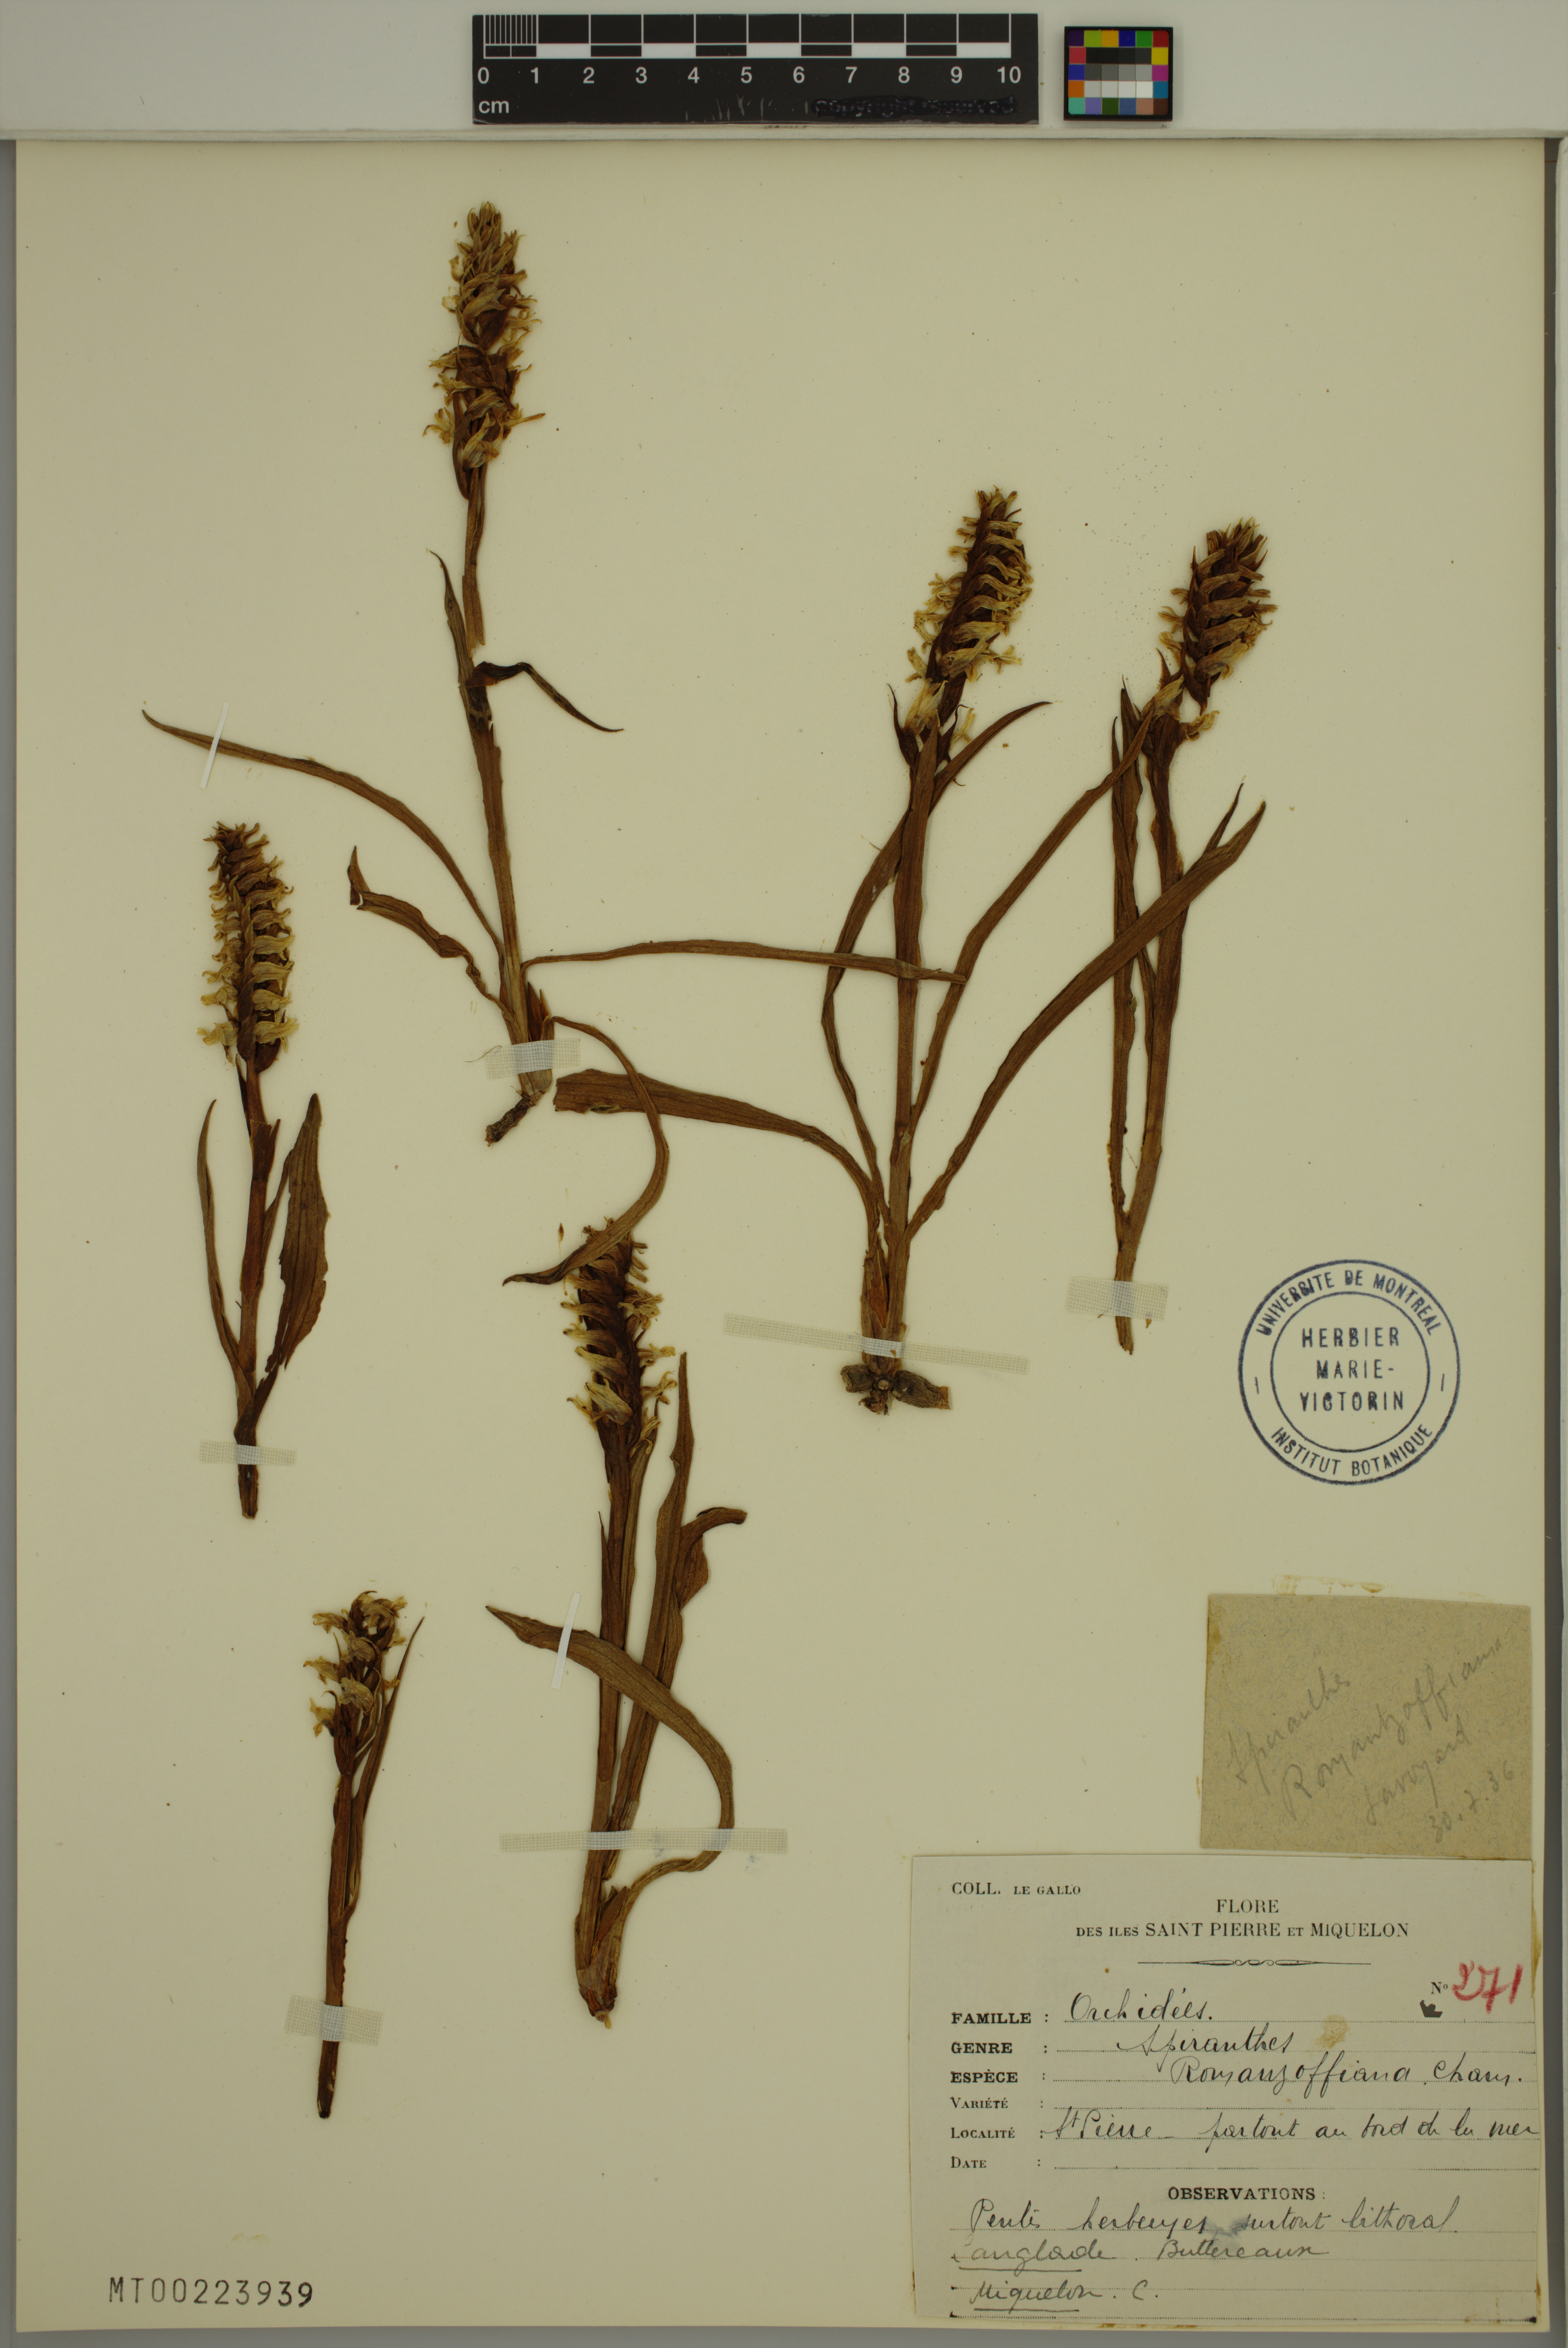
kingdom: Plantae
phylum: Tracheophyta
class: Liliopsida
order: Asparagales
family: Orchidaceae
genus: Spiranthes
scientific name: Spiranthes romanzoffiana
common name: Irish lady's-tresses
